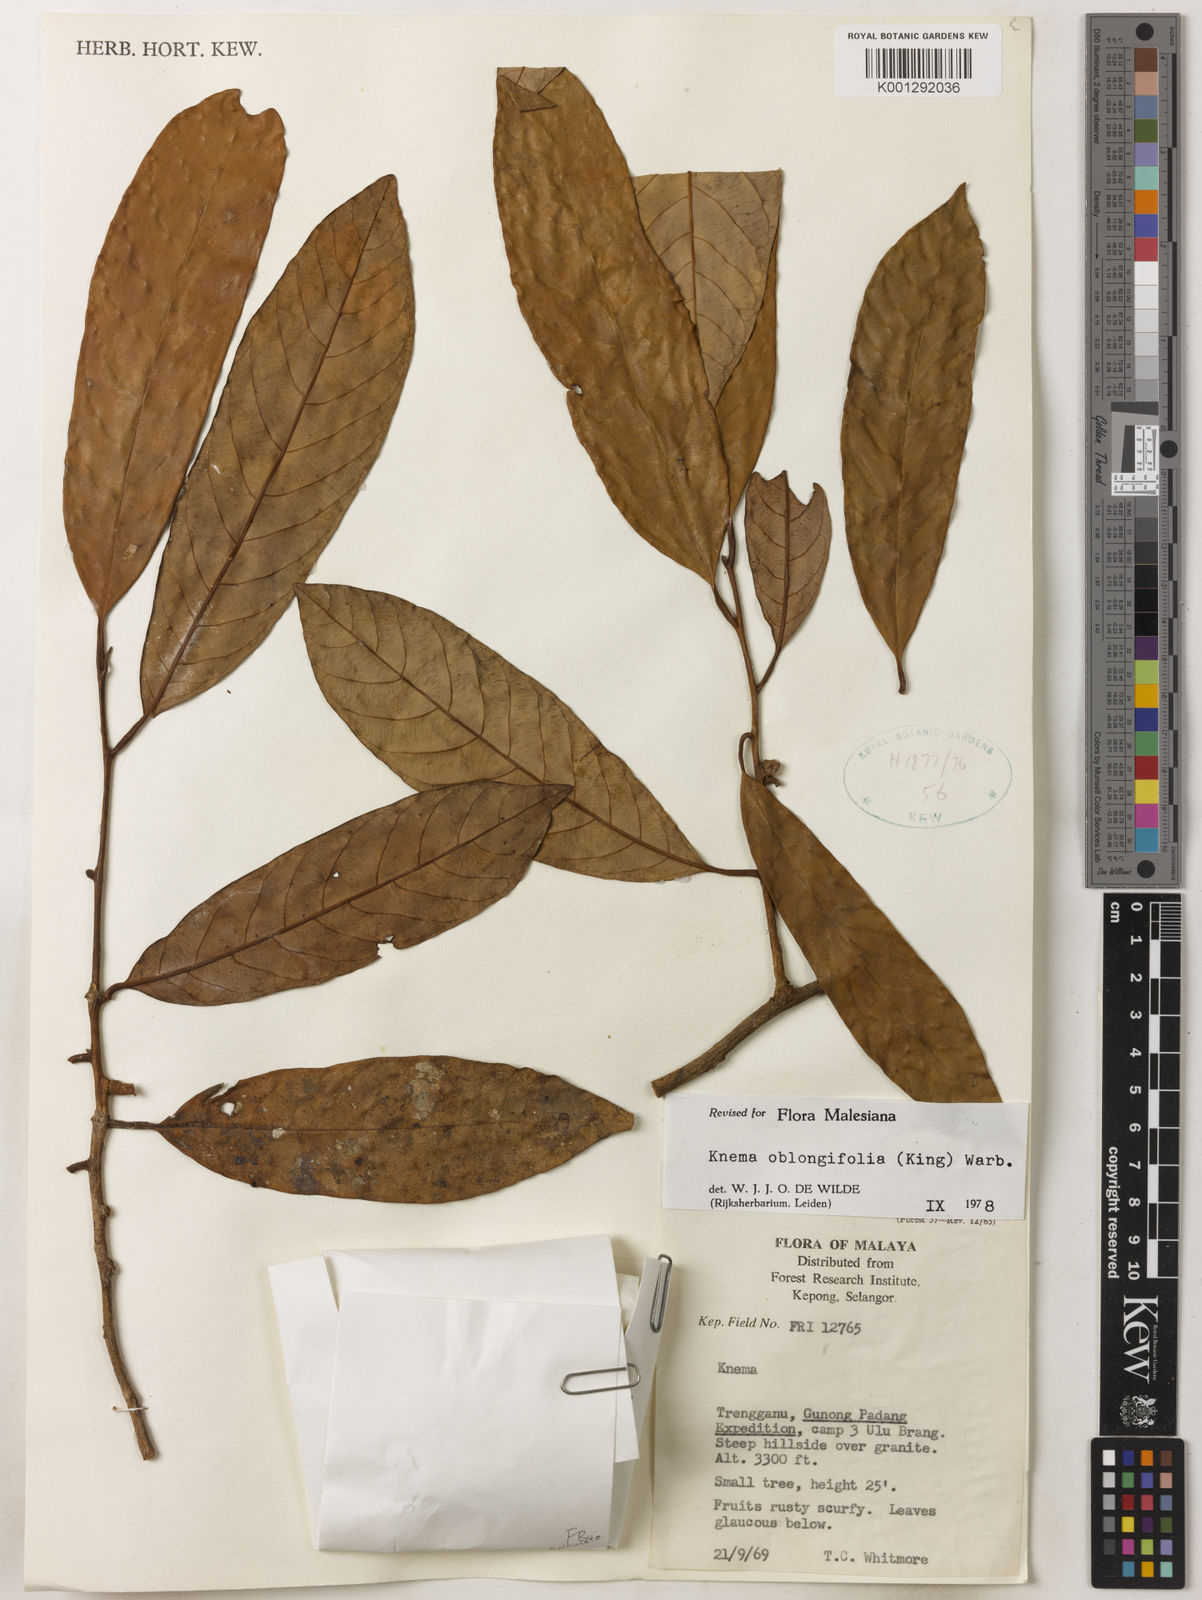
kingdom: Plantae
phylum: Tracheophyta
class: Magnoliopsida
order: Magnoliales
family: Myristicaceae
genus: Knema
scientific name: Knema oblongifolia
